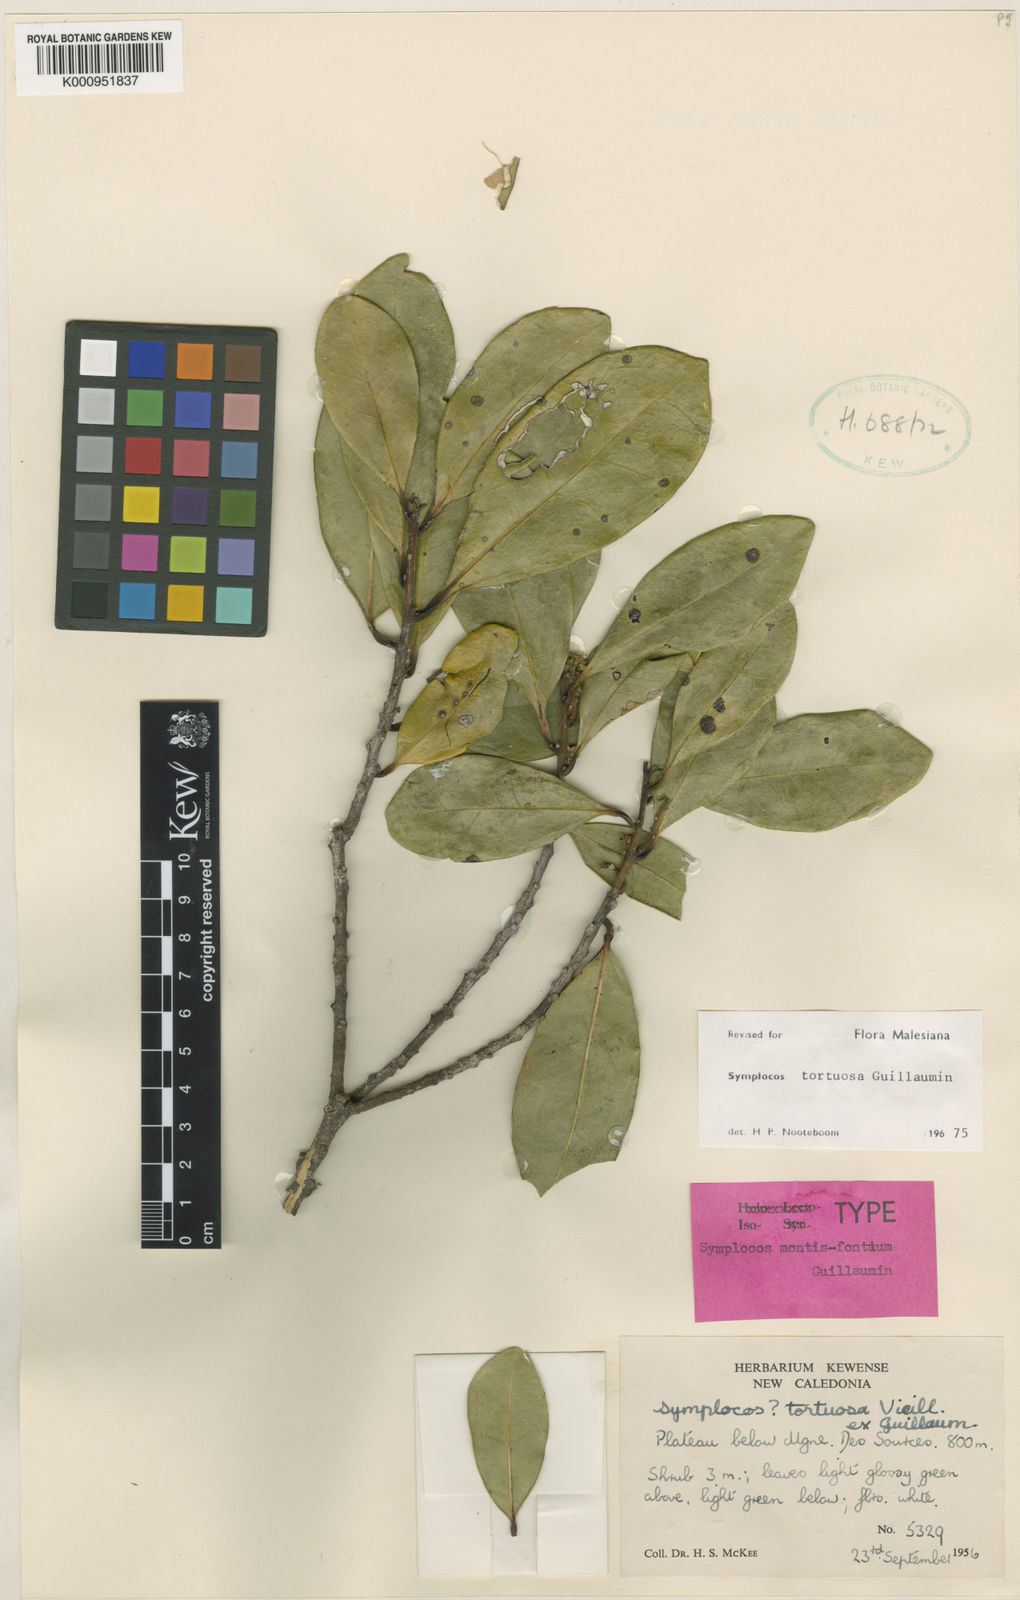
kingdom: Plantae
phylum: Tracheophyta
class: Magnoliopsida
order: Ericales
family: Symplocaceae
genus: Symplocos
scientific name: Symplocos montana
